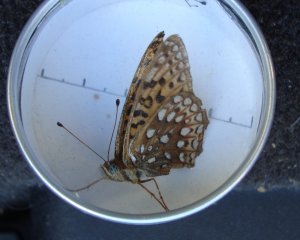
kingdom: Animalia
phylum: Arthropoda
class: Insecta
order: Lepidoptera
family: Nymphalidae
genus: Speyeria
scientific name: Speyeria atlantis
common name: Atlantis Fritillary
